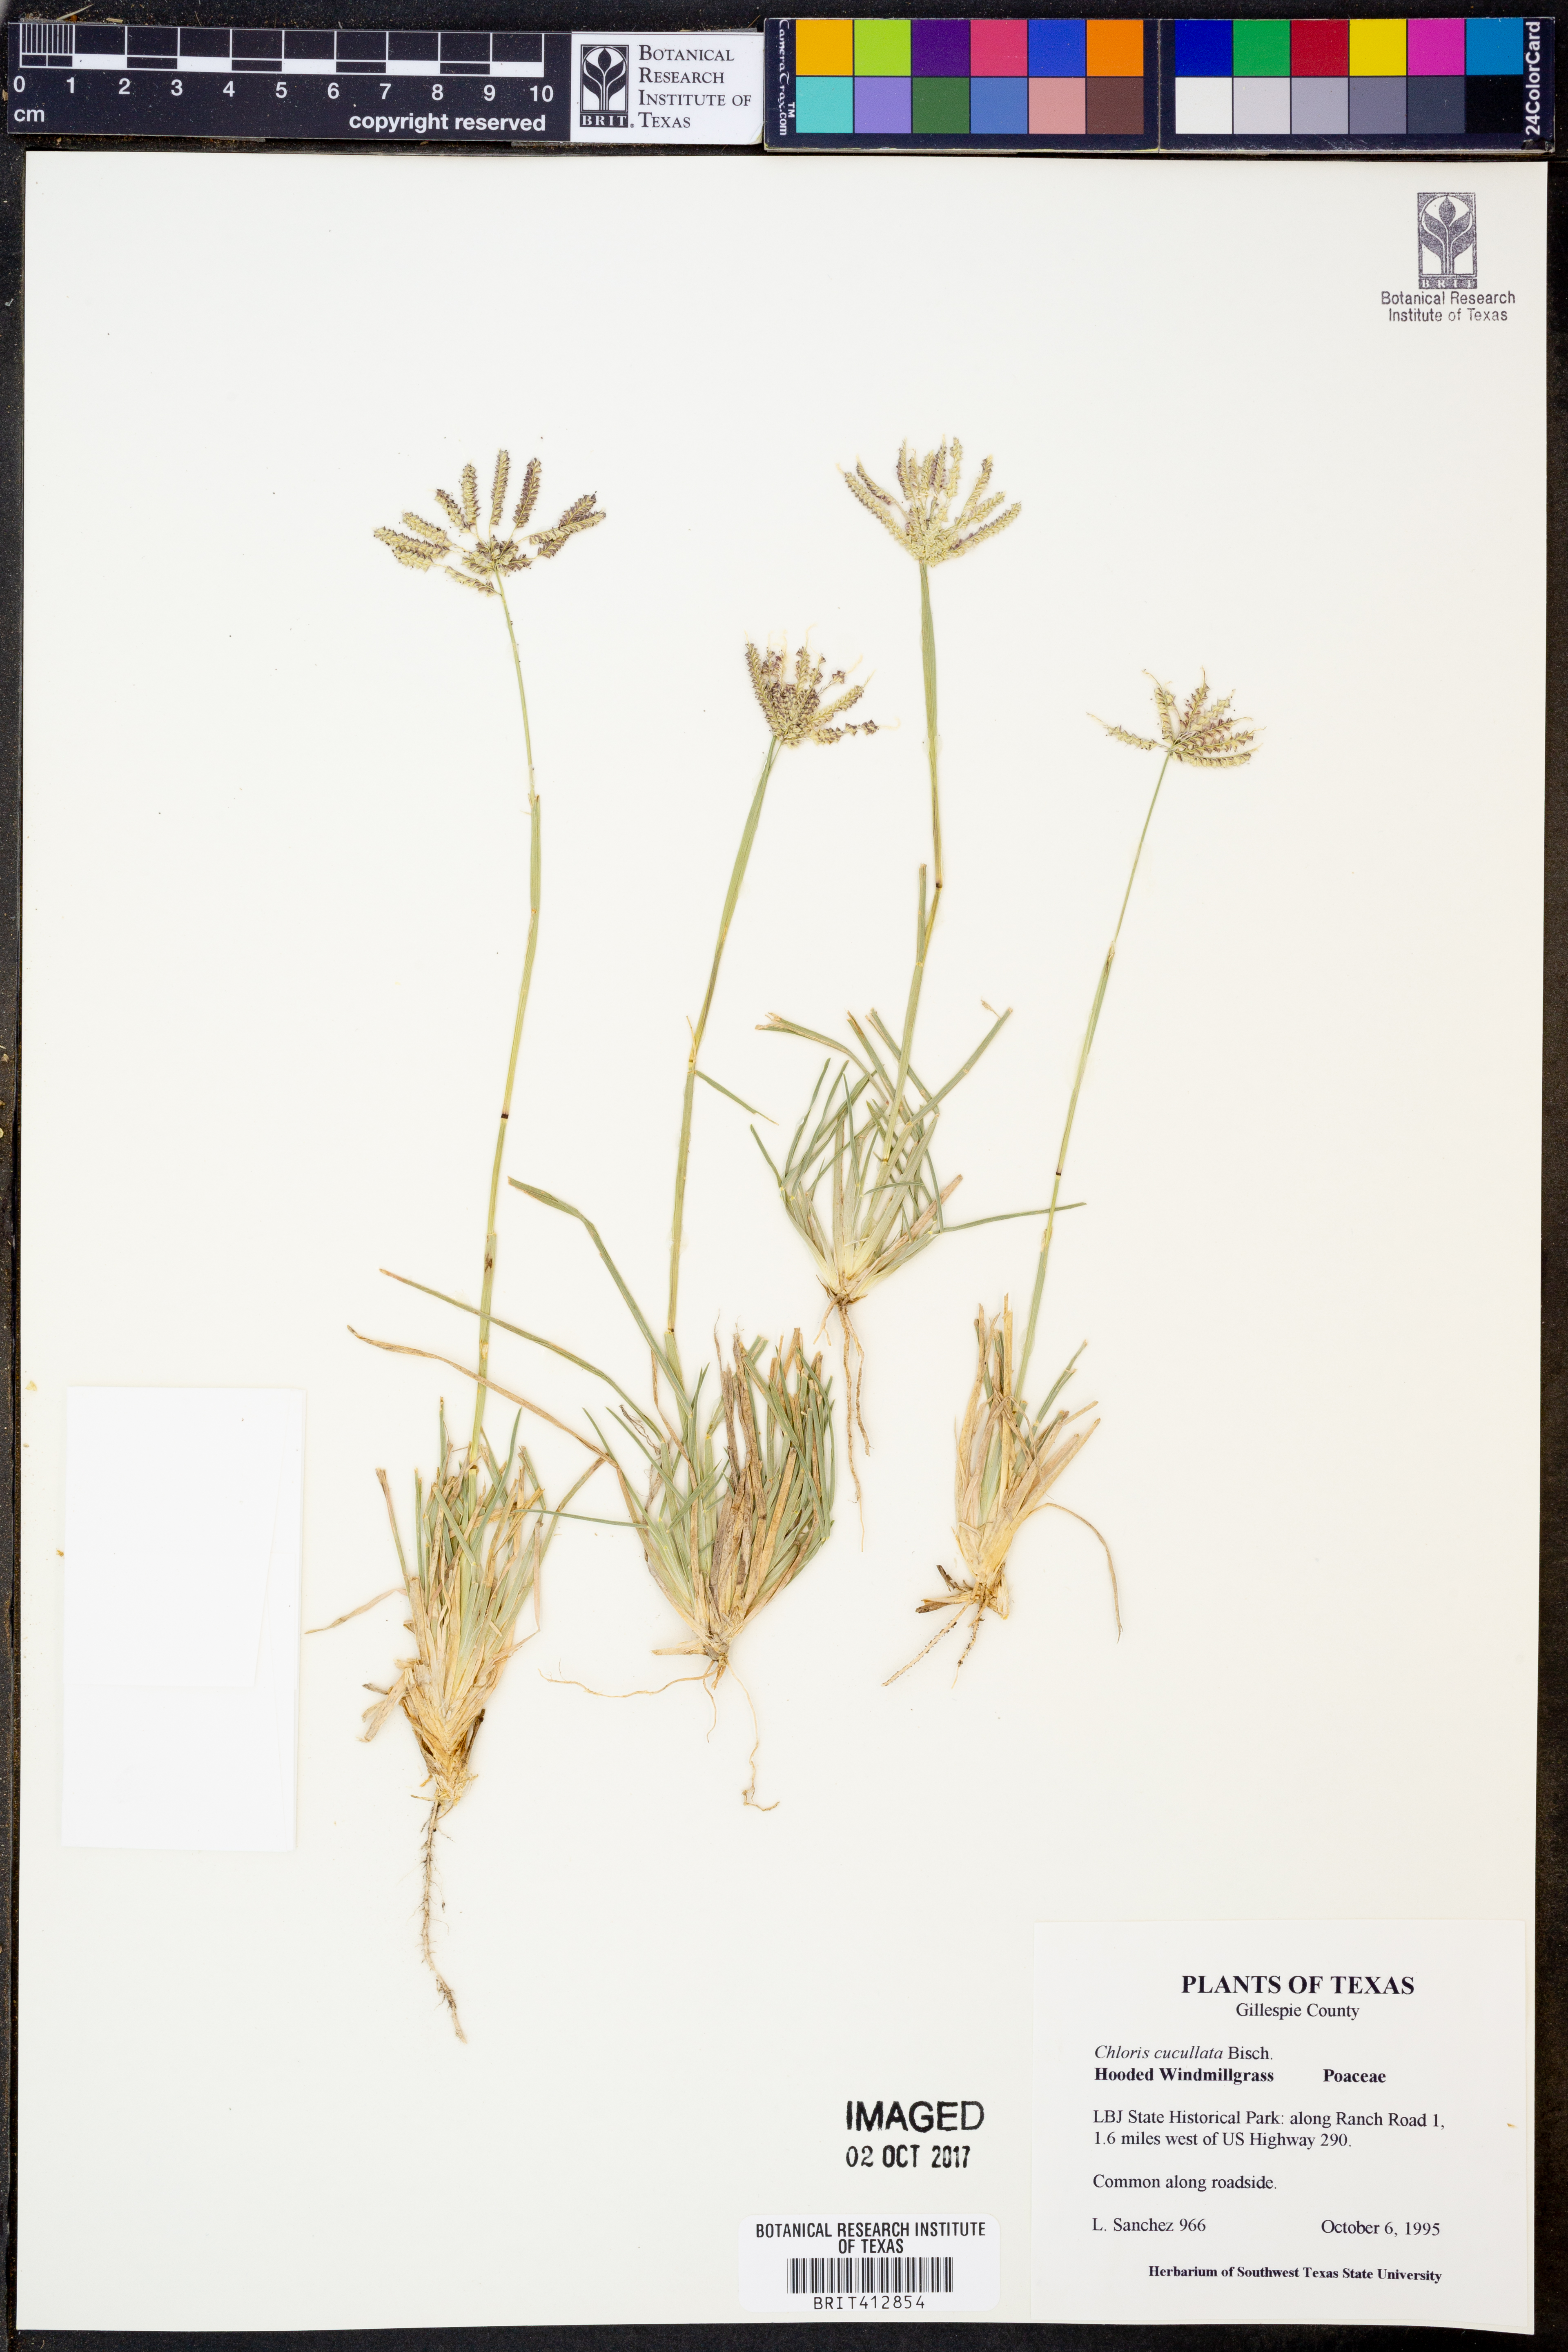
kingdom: Plantae
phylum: Tracheophyta
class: Liliopsida
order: Poales
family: Poaceae
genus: Chloris
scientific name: Chloris cucullata
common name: Hooded windmill grass
